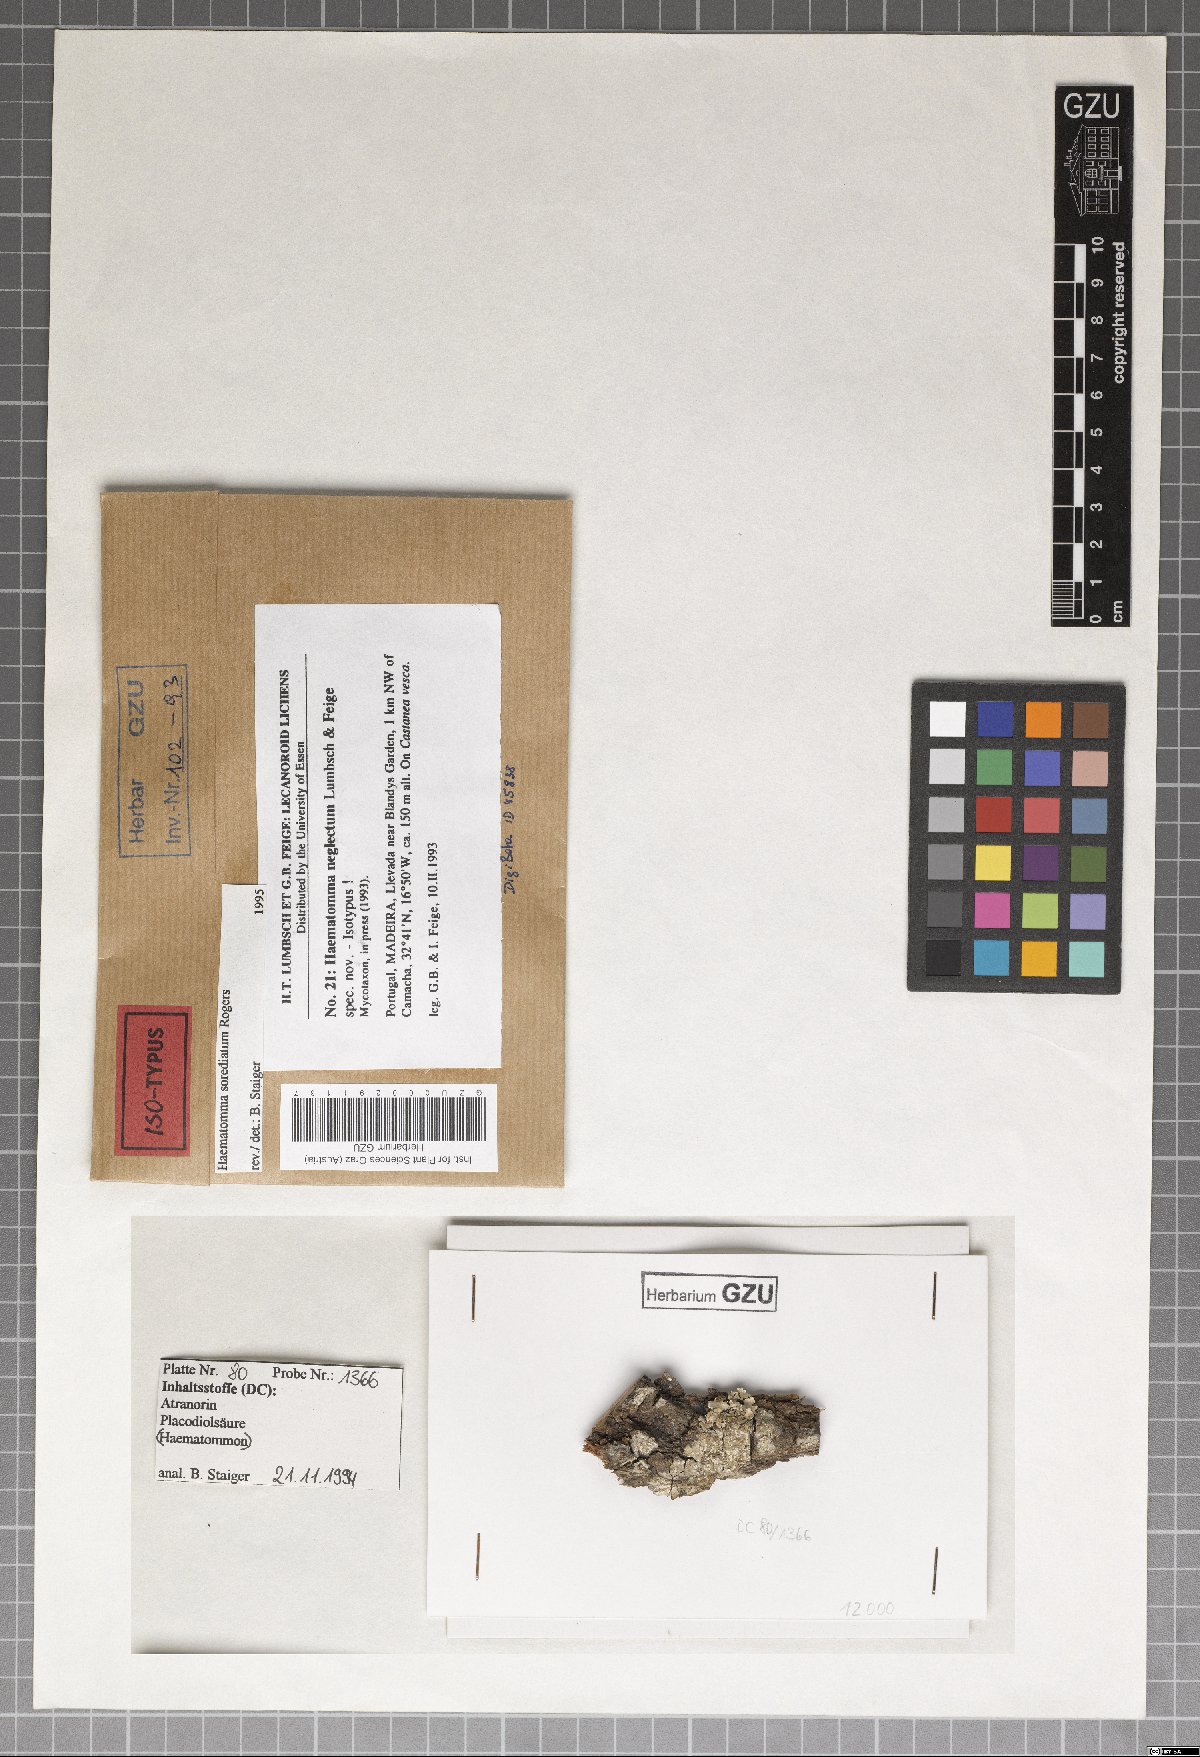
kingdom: Fungi
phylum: Ascomycota
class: Lecanoromycetes
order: Lecanorales
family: Haematommataceae
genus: Haematomma
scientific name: Haematomma sorediatum
